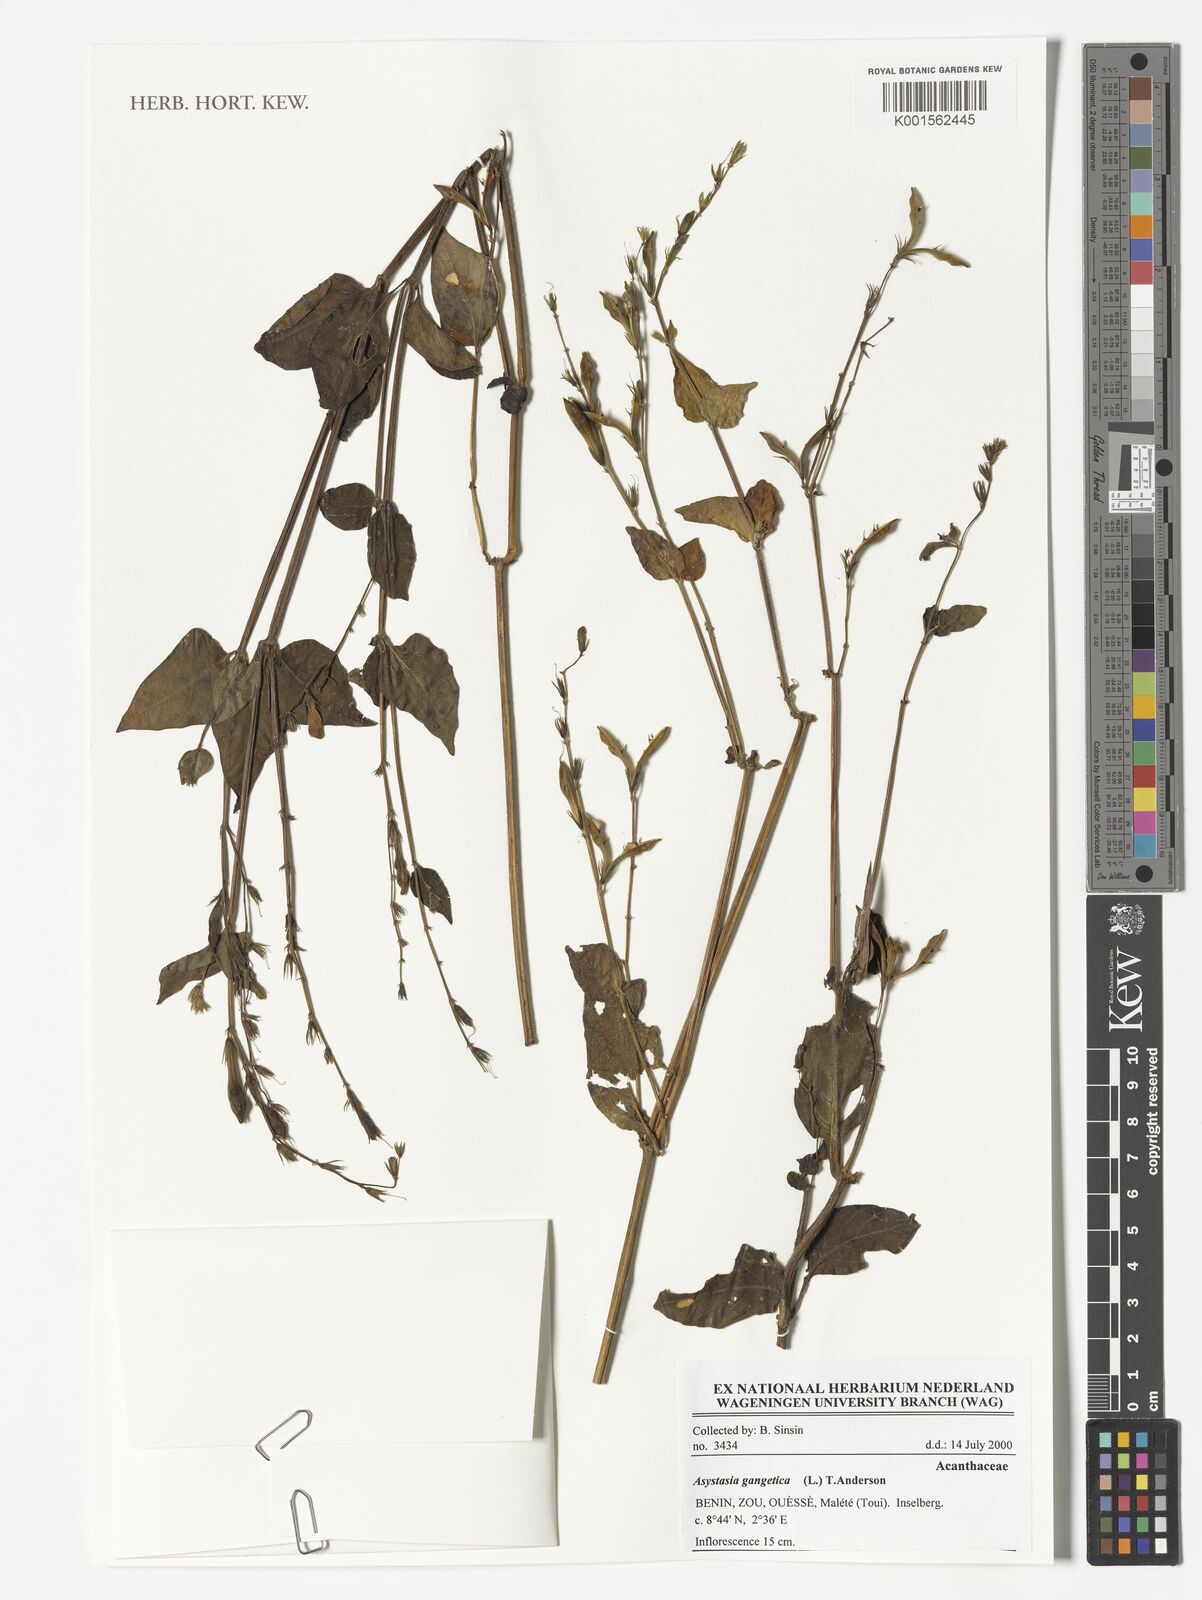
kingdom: Plantae
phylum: Tracheophyta
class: Magnoliopsida
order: Lamiales
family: Acanthaceae
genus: Asystasia
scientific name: Asystasia gangetica
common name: Chinese violet
